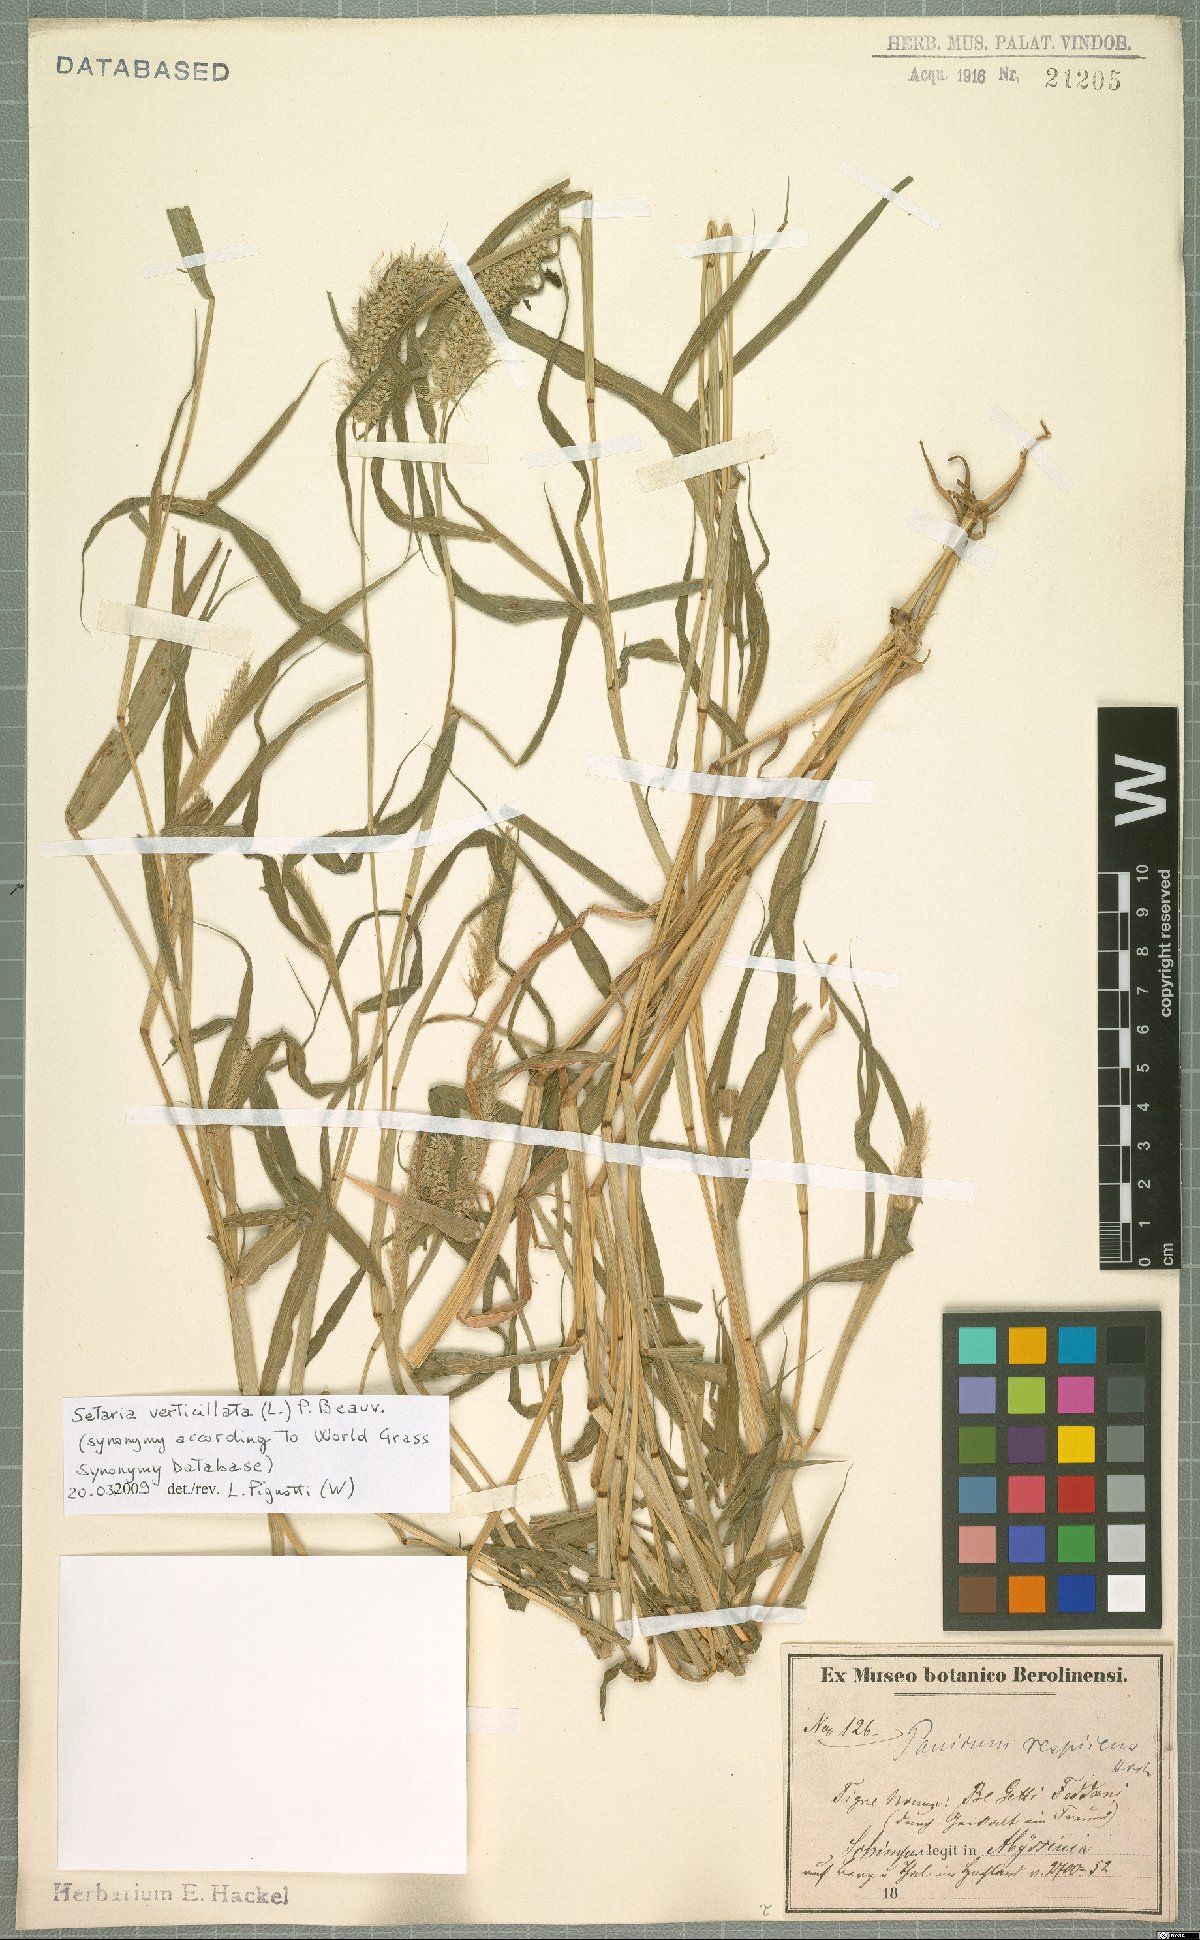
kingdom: Plantae
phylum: Tracheophyta
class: Liliopsida
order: Poales
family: Poaceae
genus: Setaria
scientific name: Setaria verticillata
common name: Hooked bristlegrass
